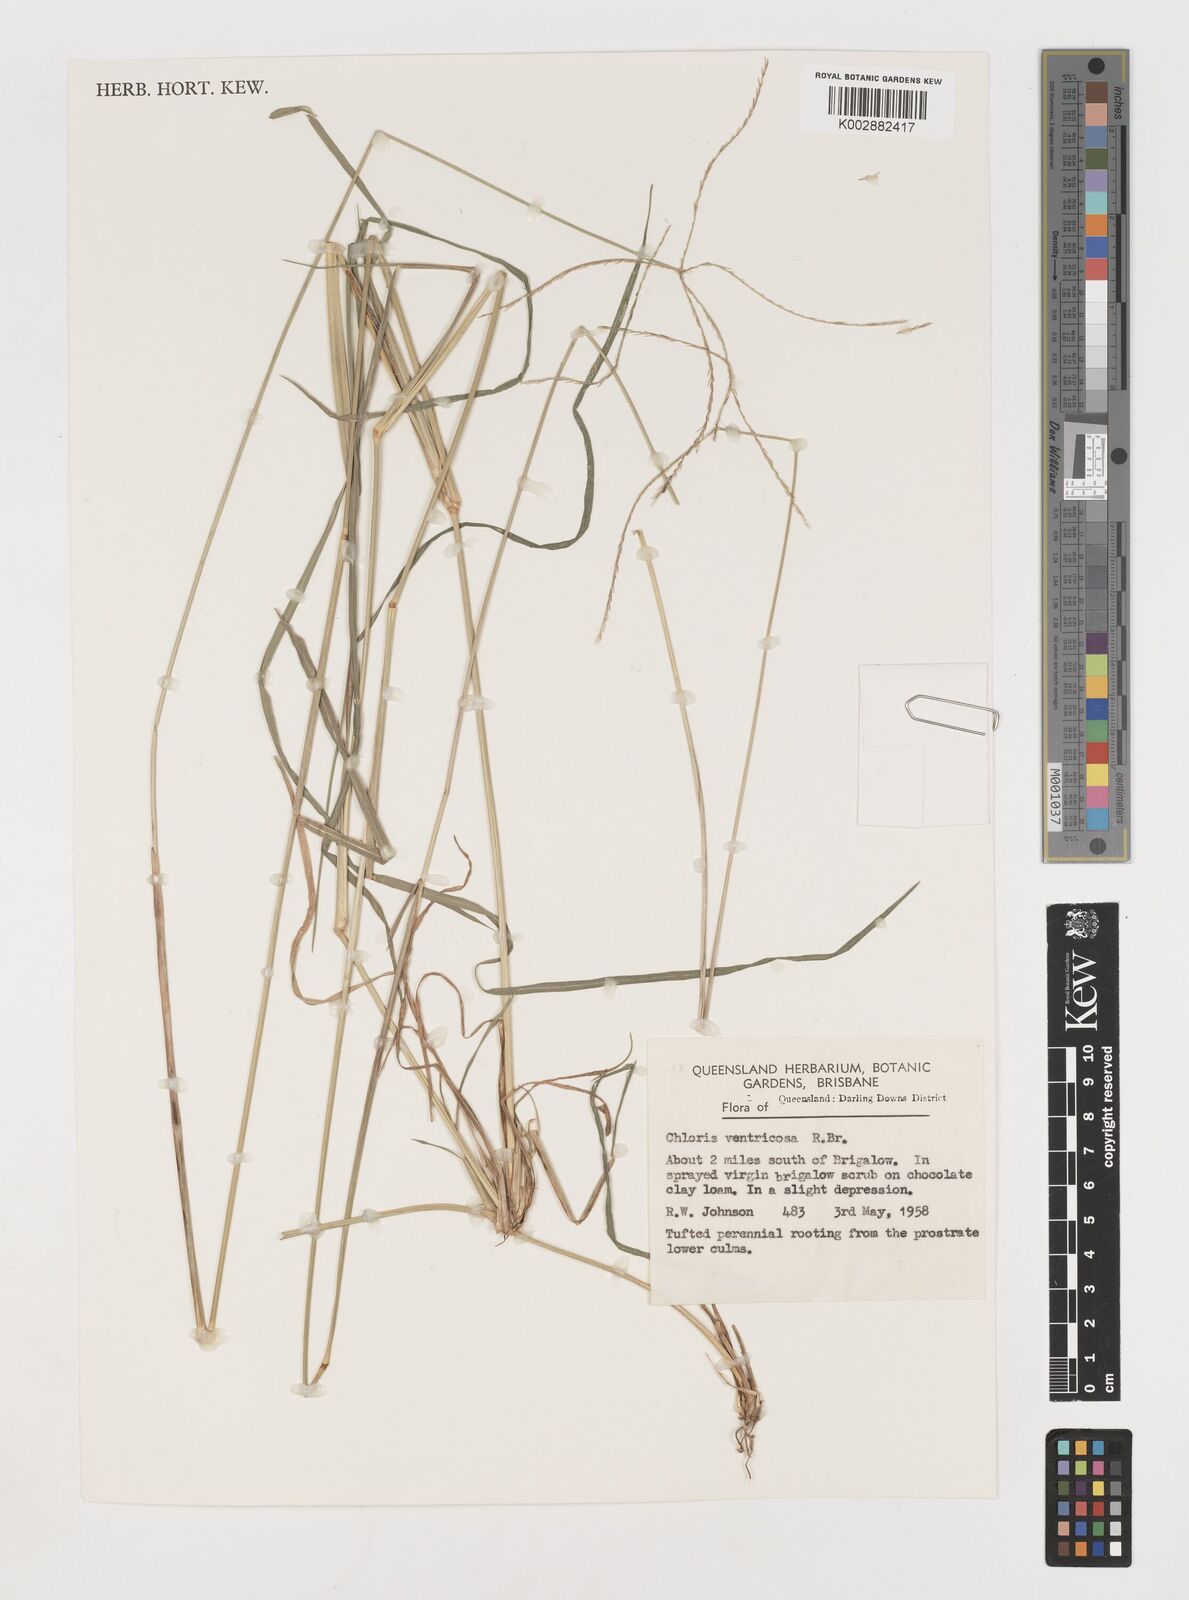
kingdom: Plantae
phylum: Tracheophyta
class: Liliopsida
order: Poales
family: Poaceae
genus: Chloris
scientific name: Chloris ventricosa
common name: Australian windmill grass
